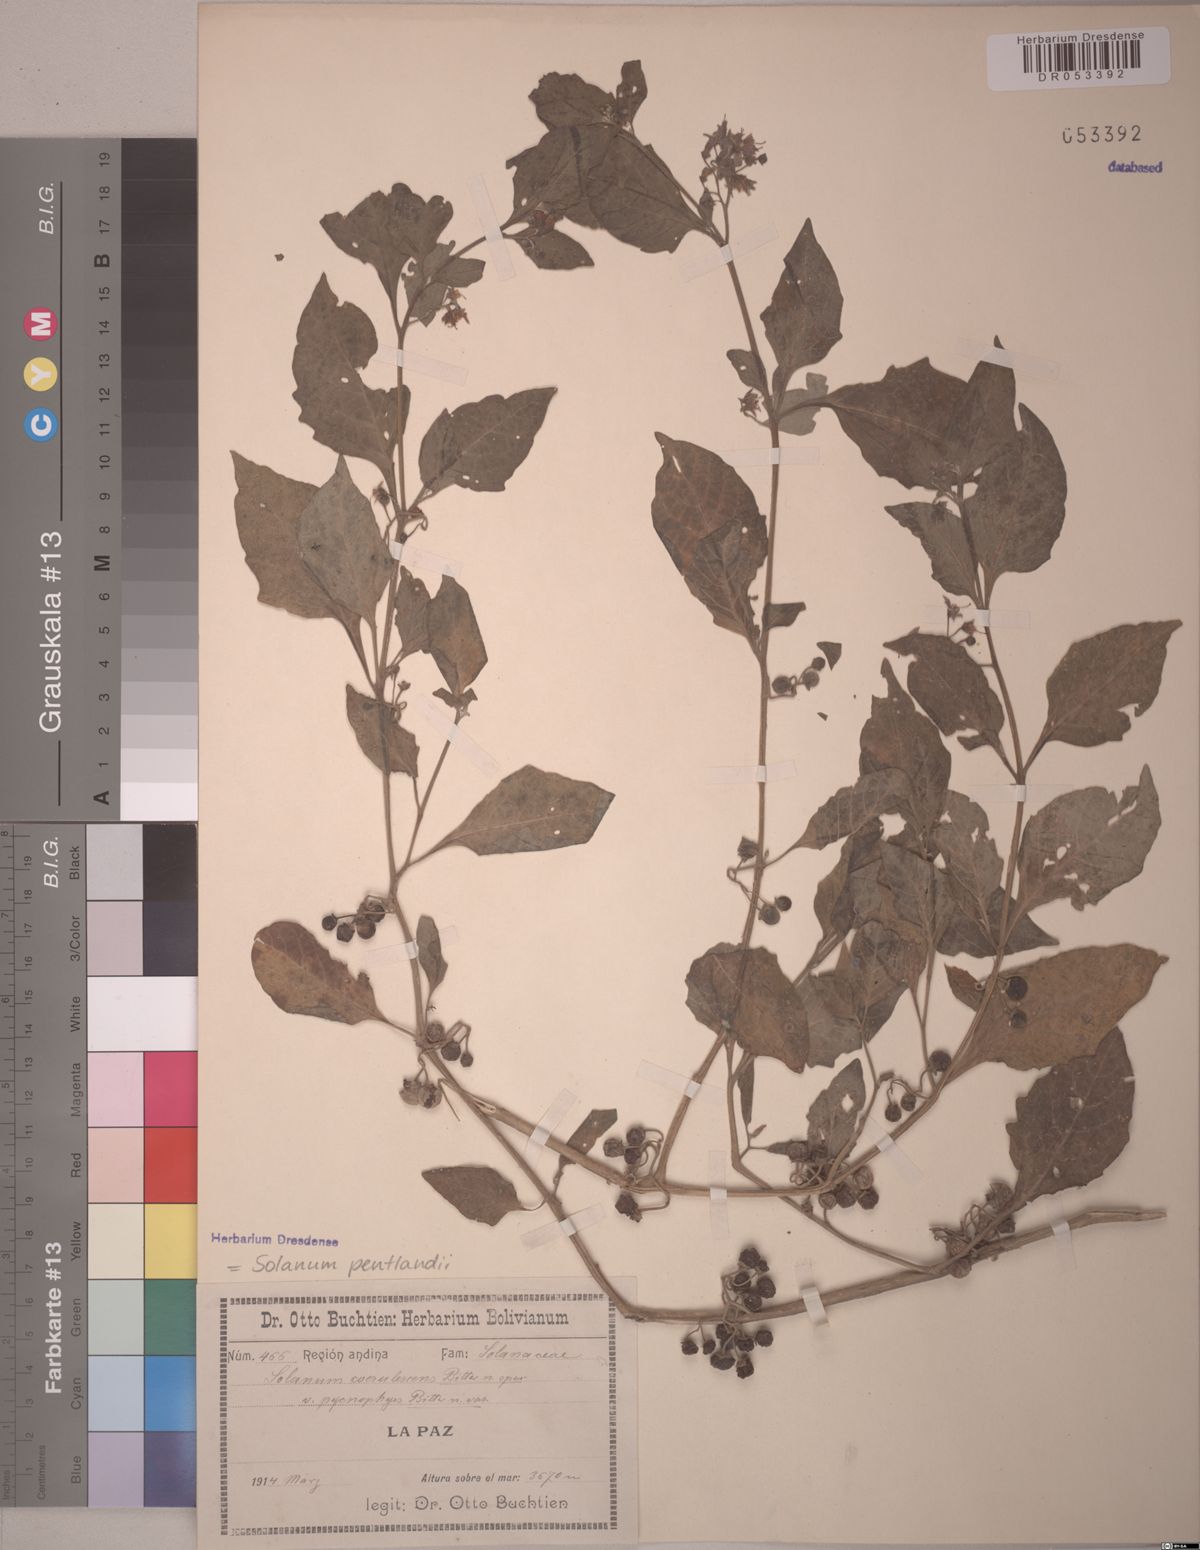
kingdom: Plantae
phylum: Tracheophyta
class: Magnoliopsida
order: Solanales
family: Solanaceae
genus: Solanum
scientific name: Solanum pentlandii
